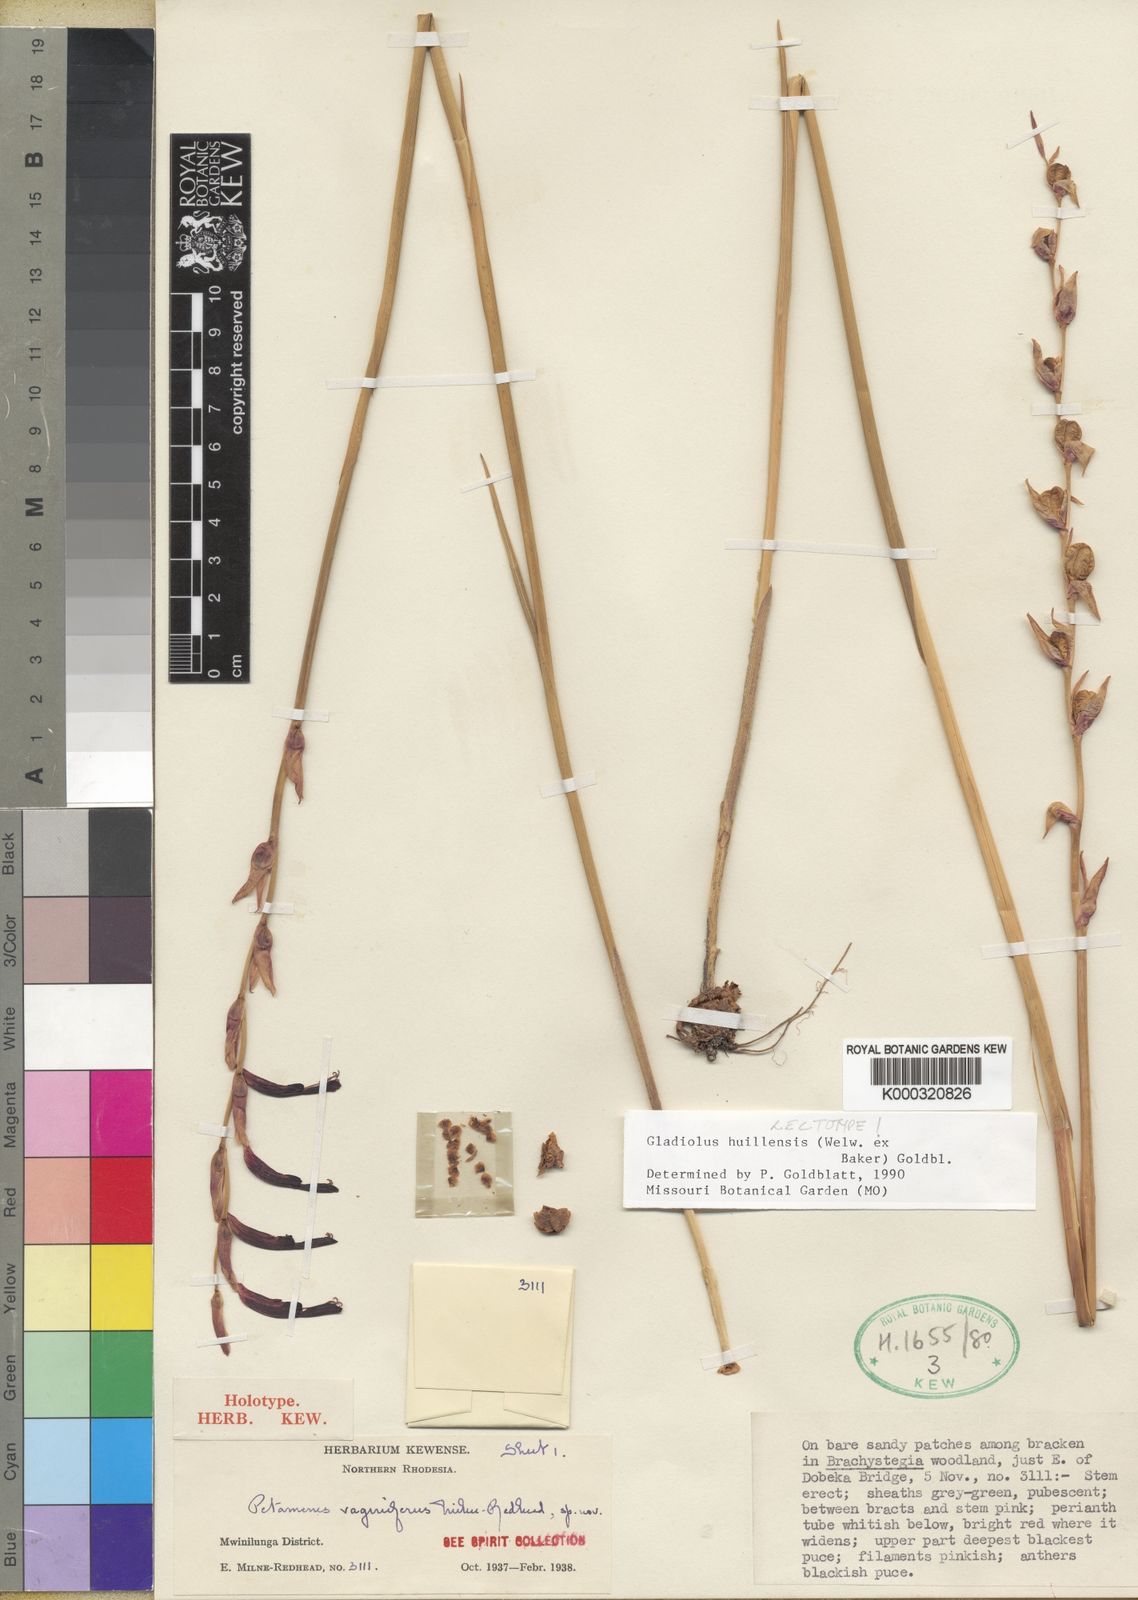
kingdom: Plantae
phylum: Tracheophyta
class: Liliopsida
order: Asparagales
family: Iridaceae
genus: Gladiolus
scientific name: Gladiolus huillensis
